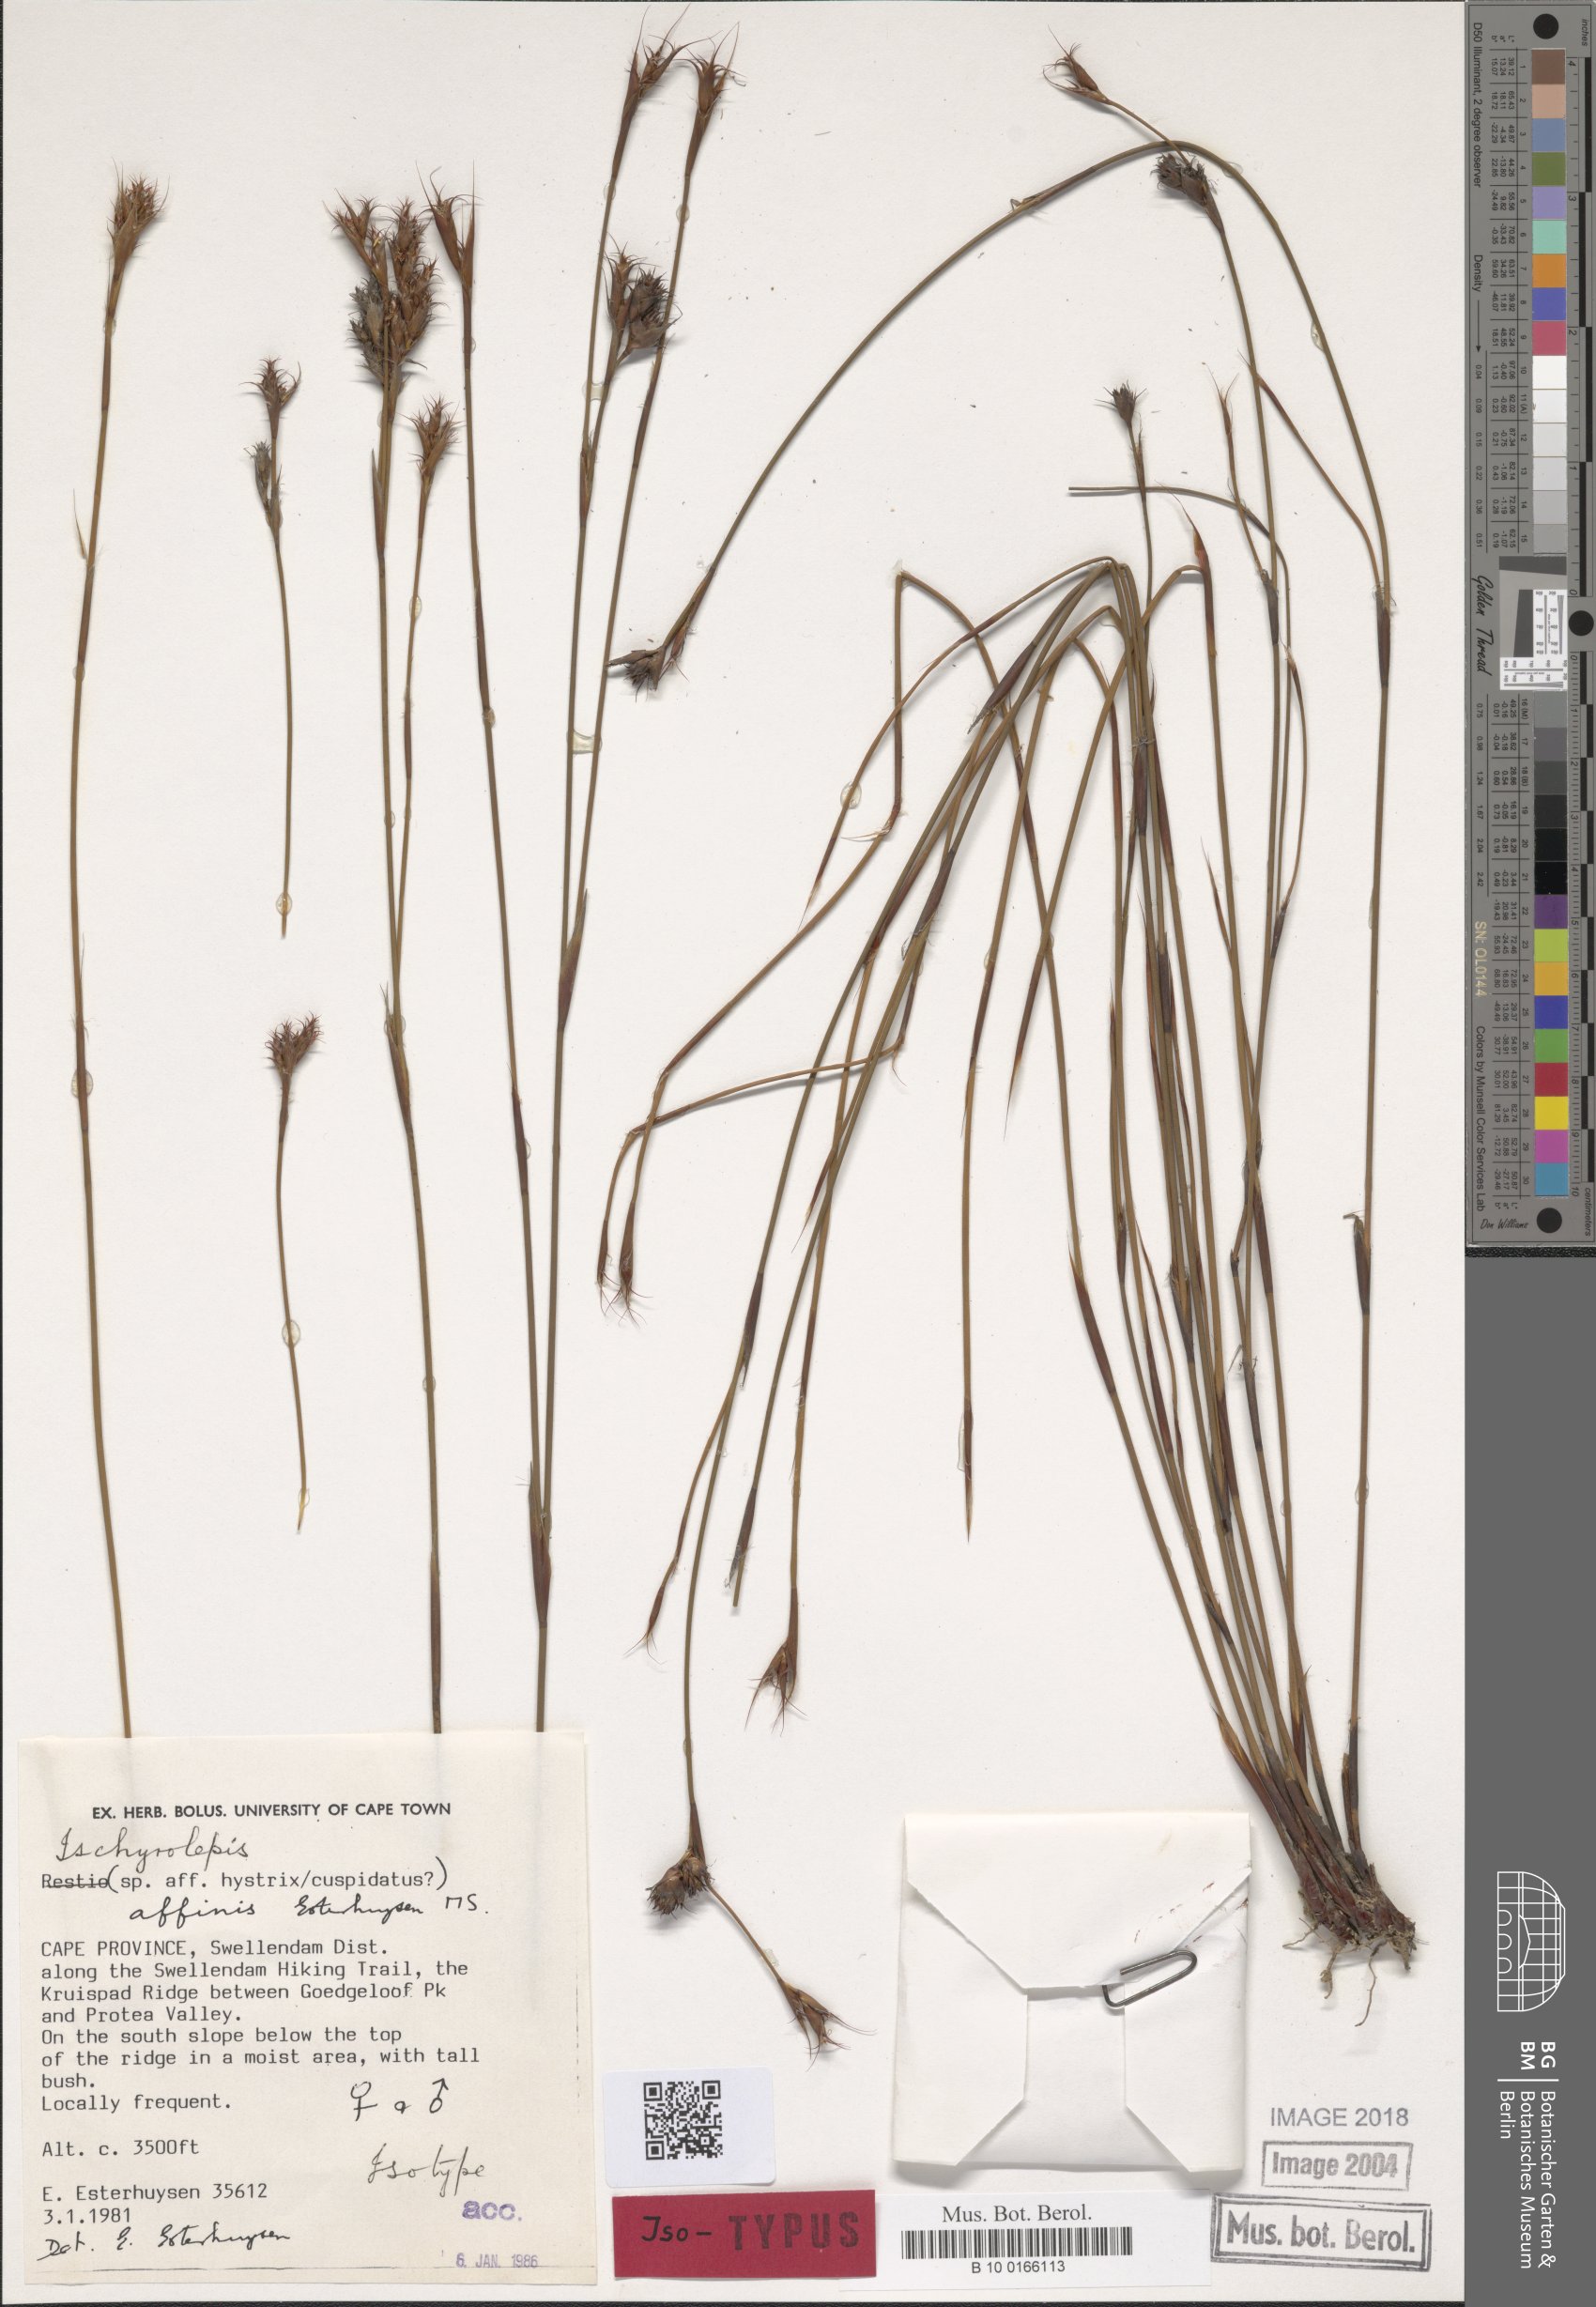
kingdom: Plantae
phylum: Tracheophyta
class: Liliopsida
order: Poales
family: Restionaceae
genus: Restio
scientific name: Restio affinis
